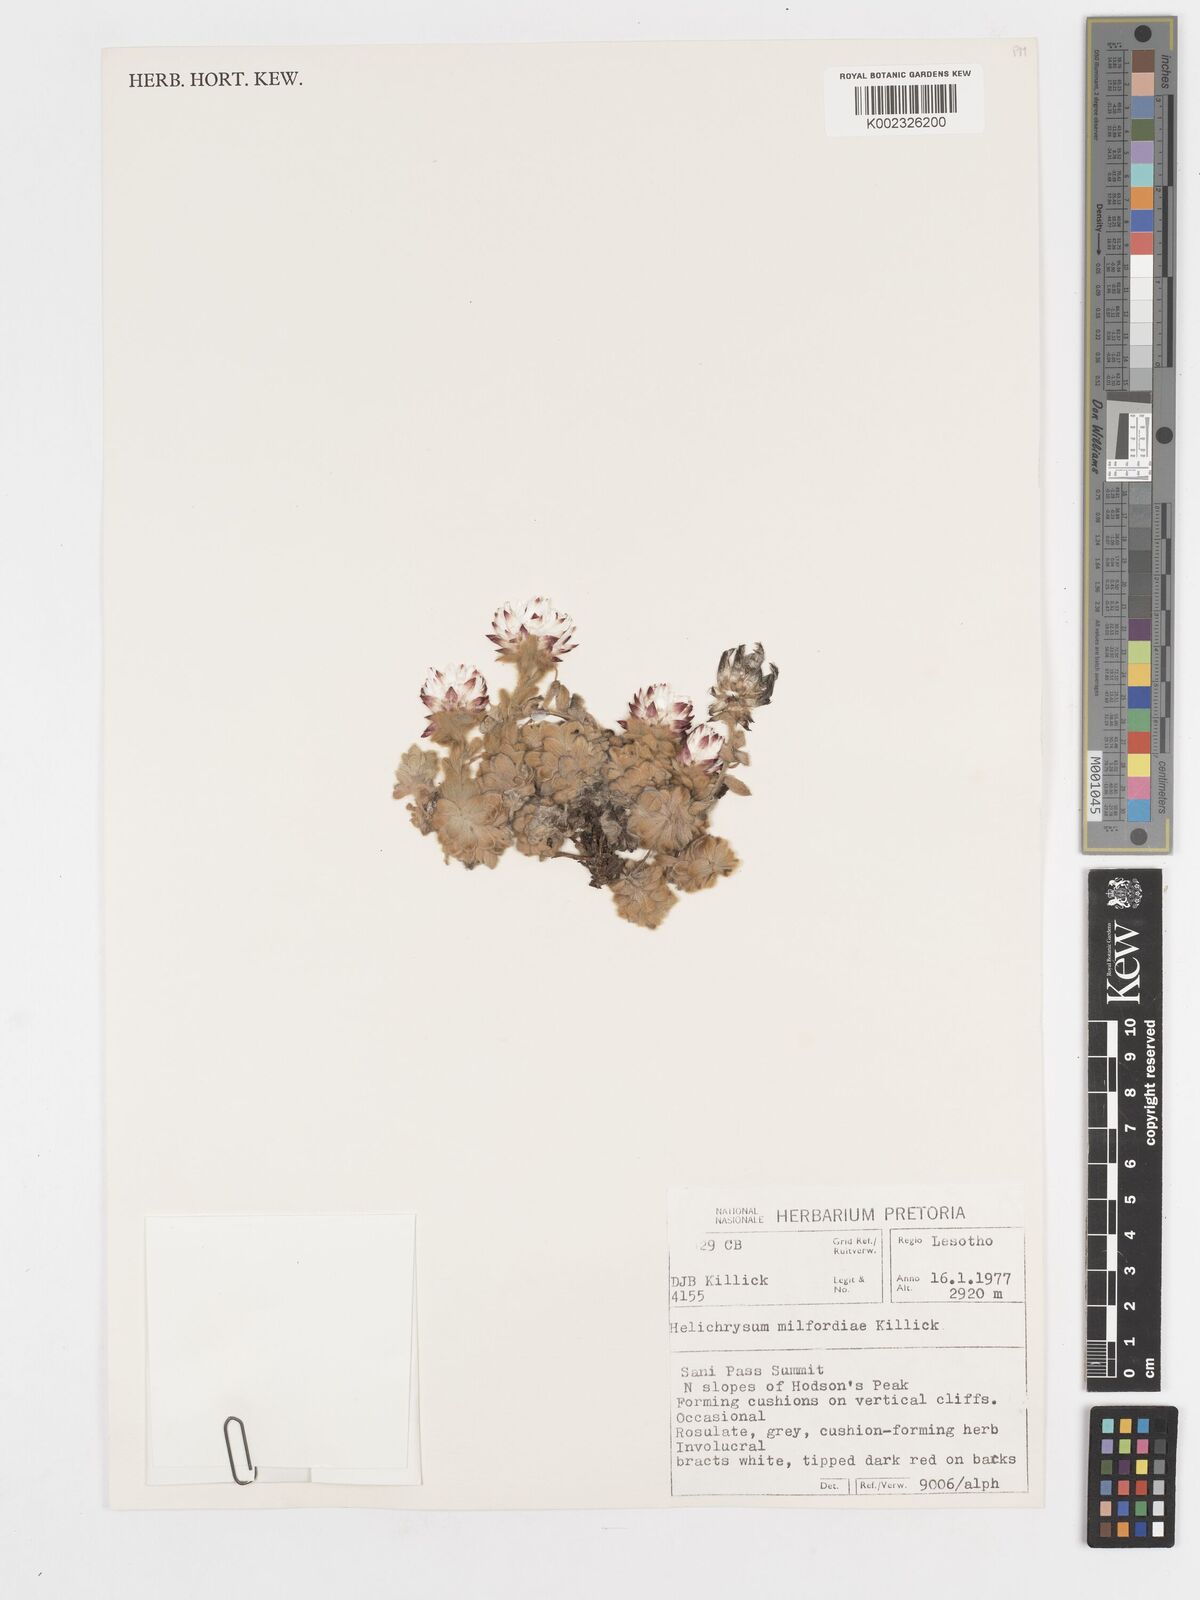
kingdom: Plantae
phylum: Tracheophyta
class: Magnoliopsida
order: Asterales
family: Asteraceae
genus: Helichrysum
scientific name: Helichrysum milfordiae
